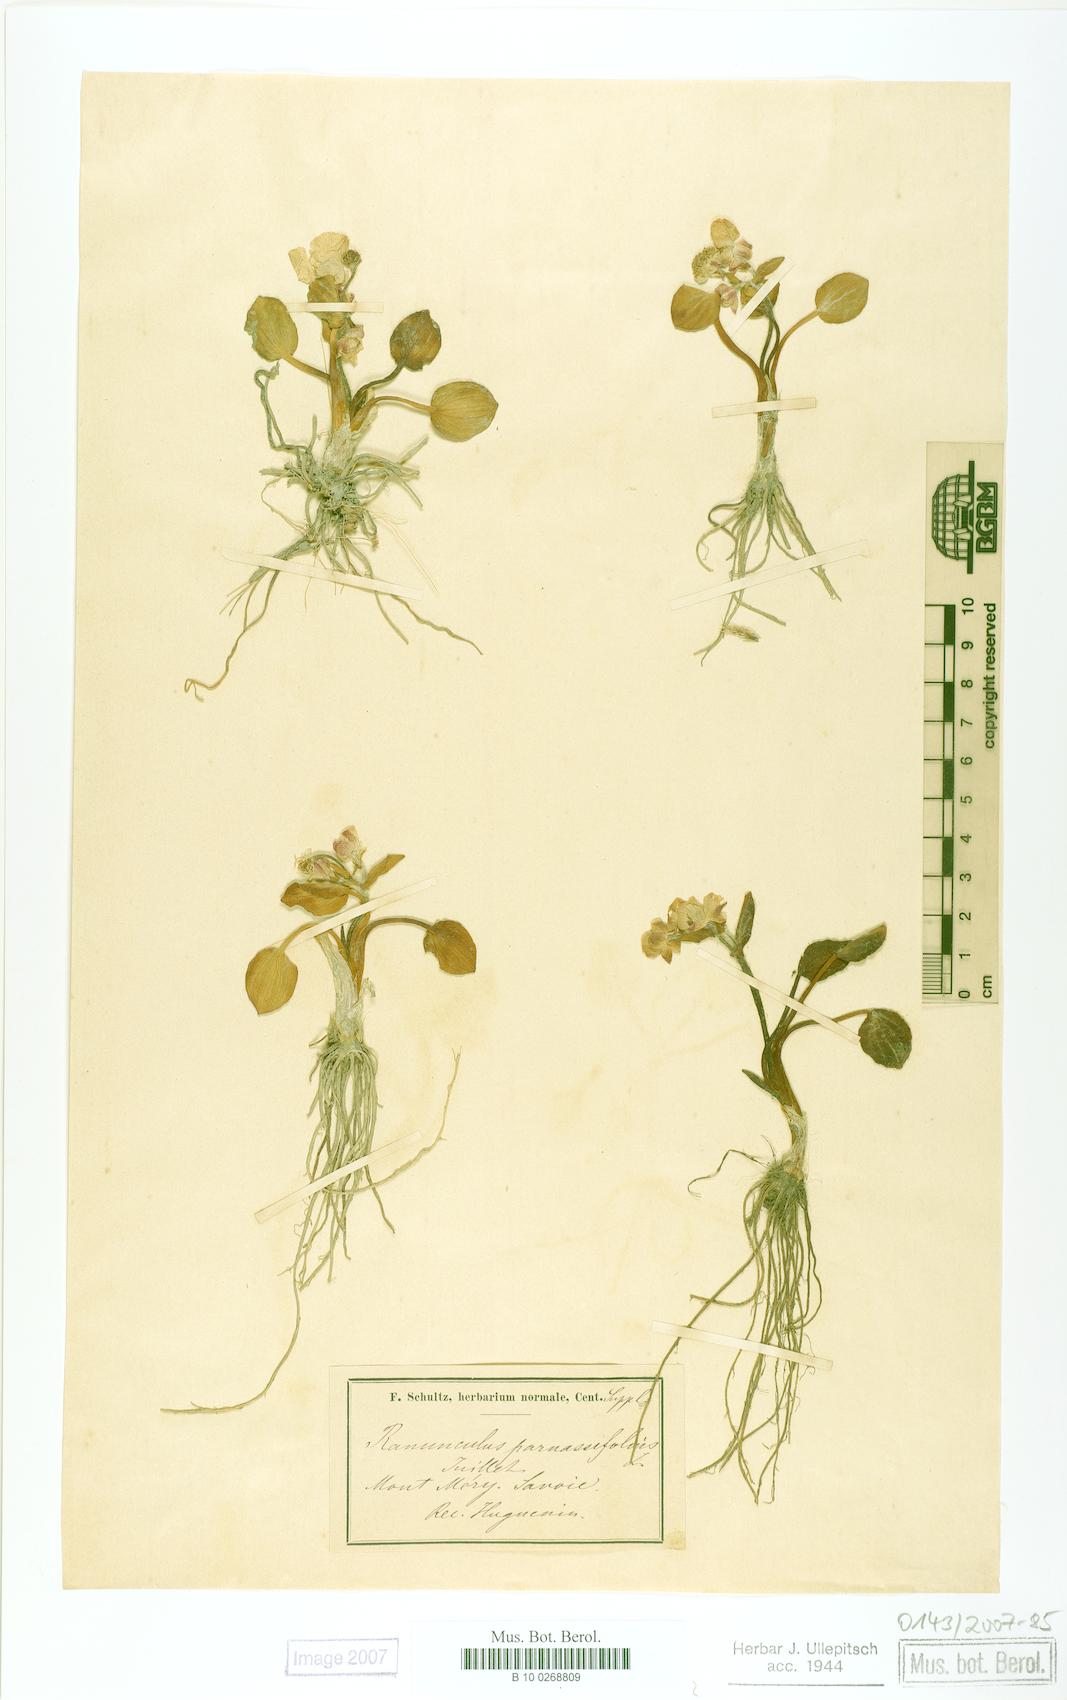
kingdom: Plantae
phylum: Tracheophyta
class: Magnoliopsida
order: Ranunculales
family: Ranunculaceae
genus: Ranunculus
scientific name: Ranunculus parnassiifolius
